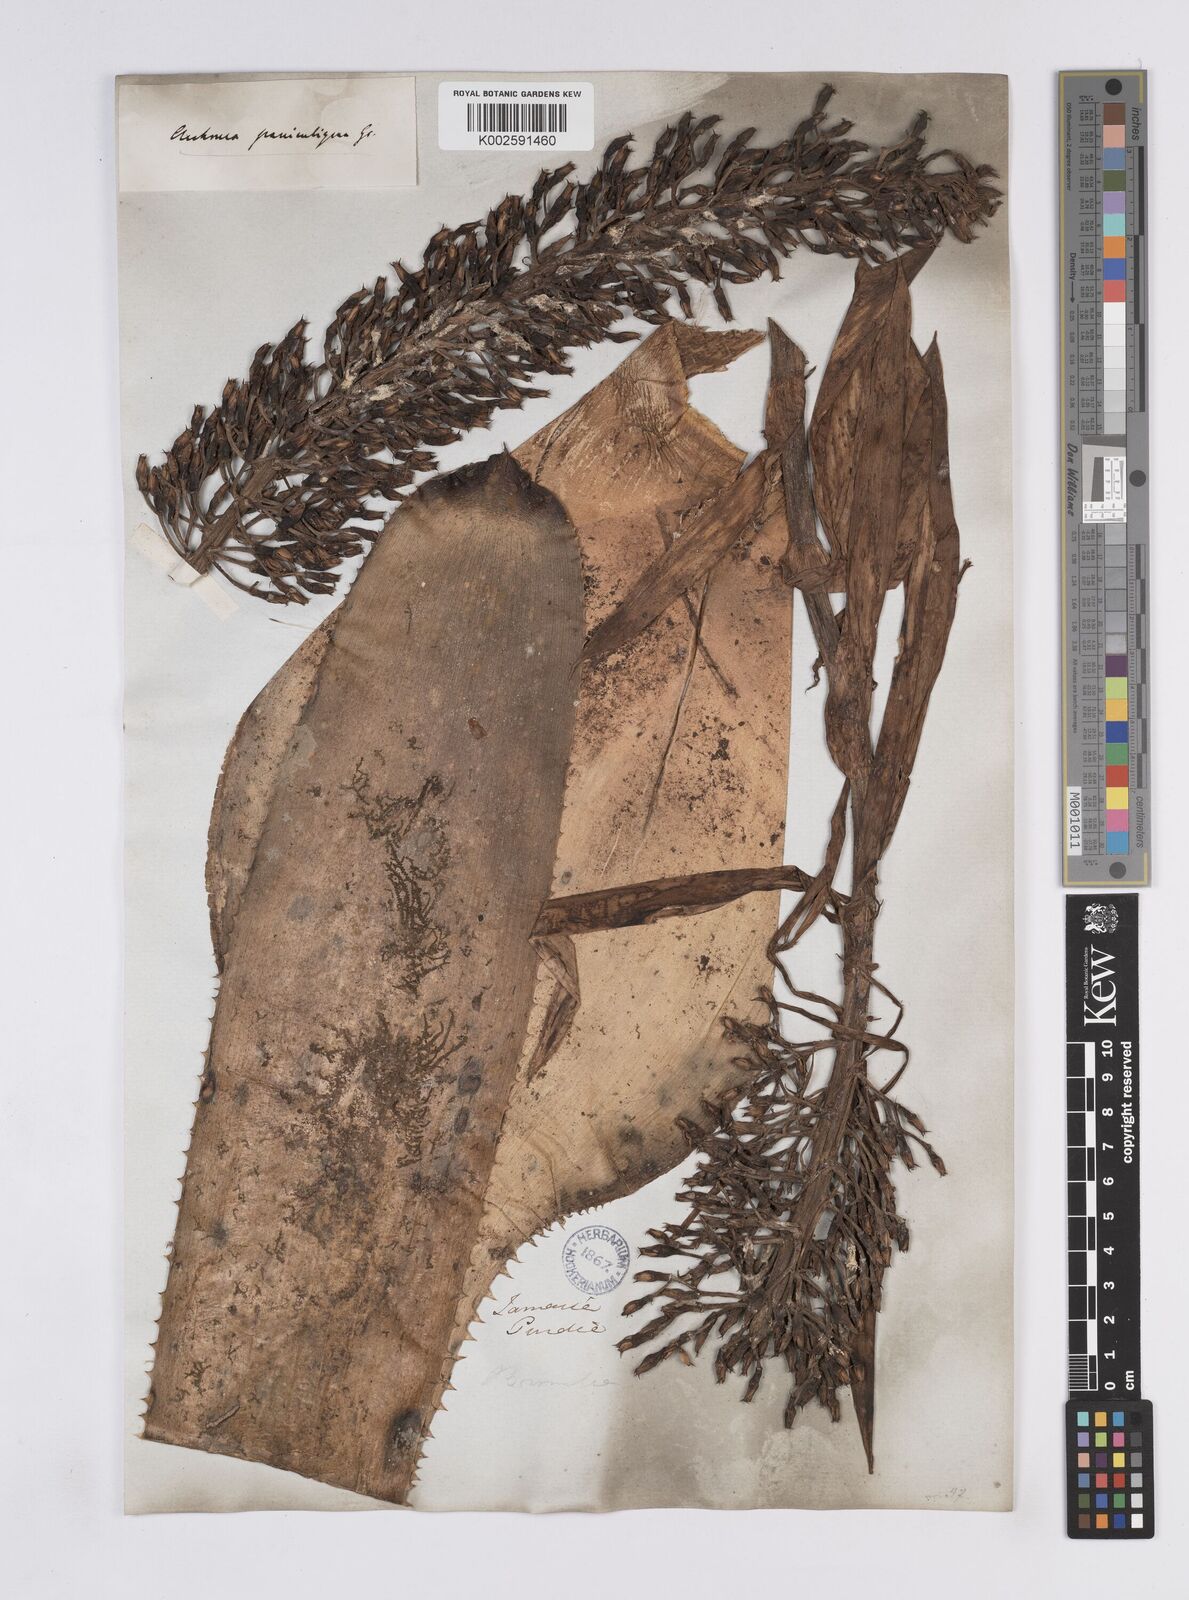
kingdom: Plantae
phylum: Tracheophyta
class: Liliopsida
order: Poales
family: Bromeliaceae
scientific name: Bromeliaceae
